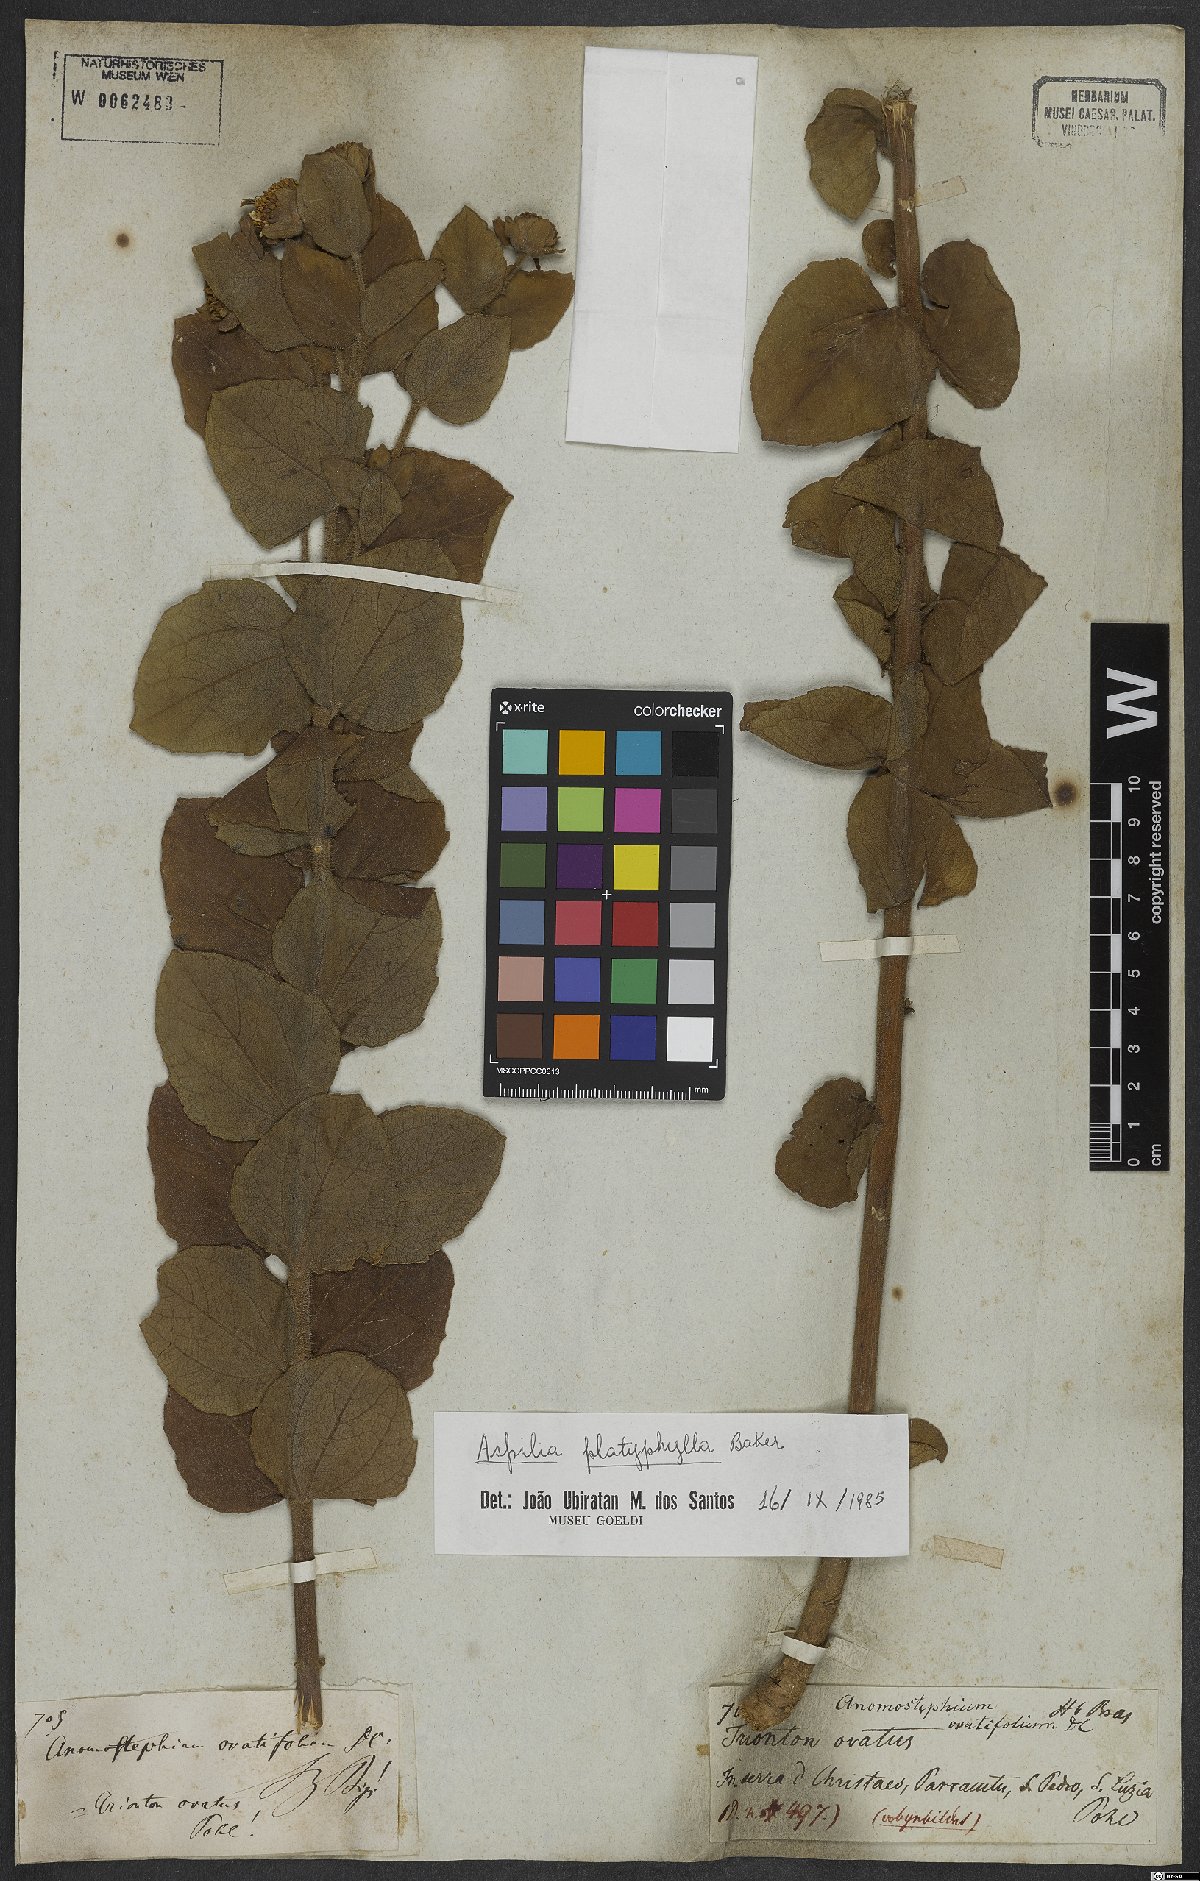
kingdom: Plantae
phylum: Tracheophyta
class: Magnoliopsida
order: Asterales
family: Asteraceae
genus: Aspilia
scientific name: Aspilia platyphylla
